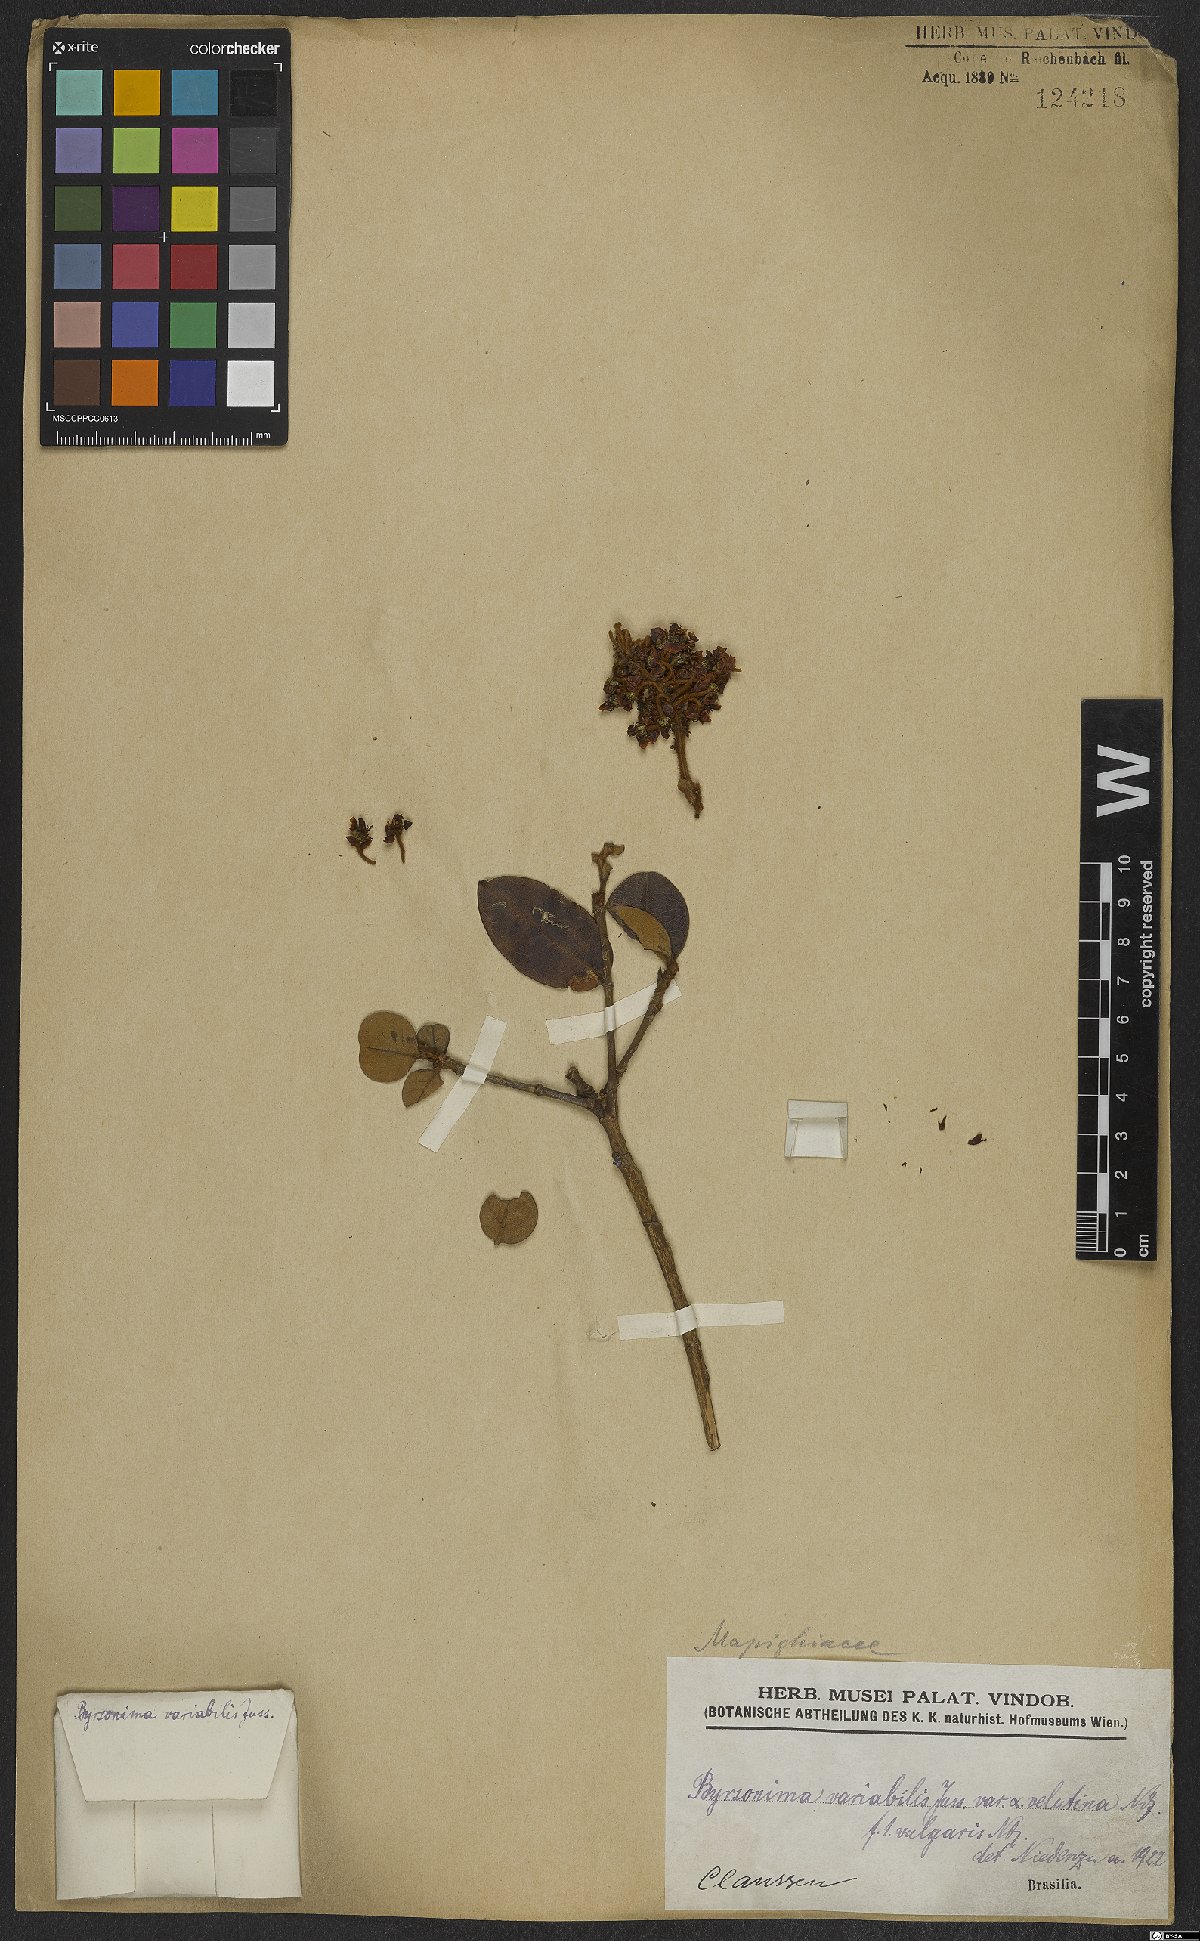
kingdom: Plantae
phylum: Tracheophyta
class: Magnoliopsida
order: Malpighiales
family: Malpighiaceae
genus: Byrsonima
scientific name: Byrsonima variabilis
